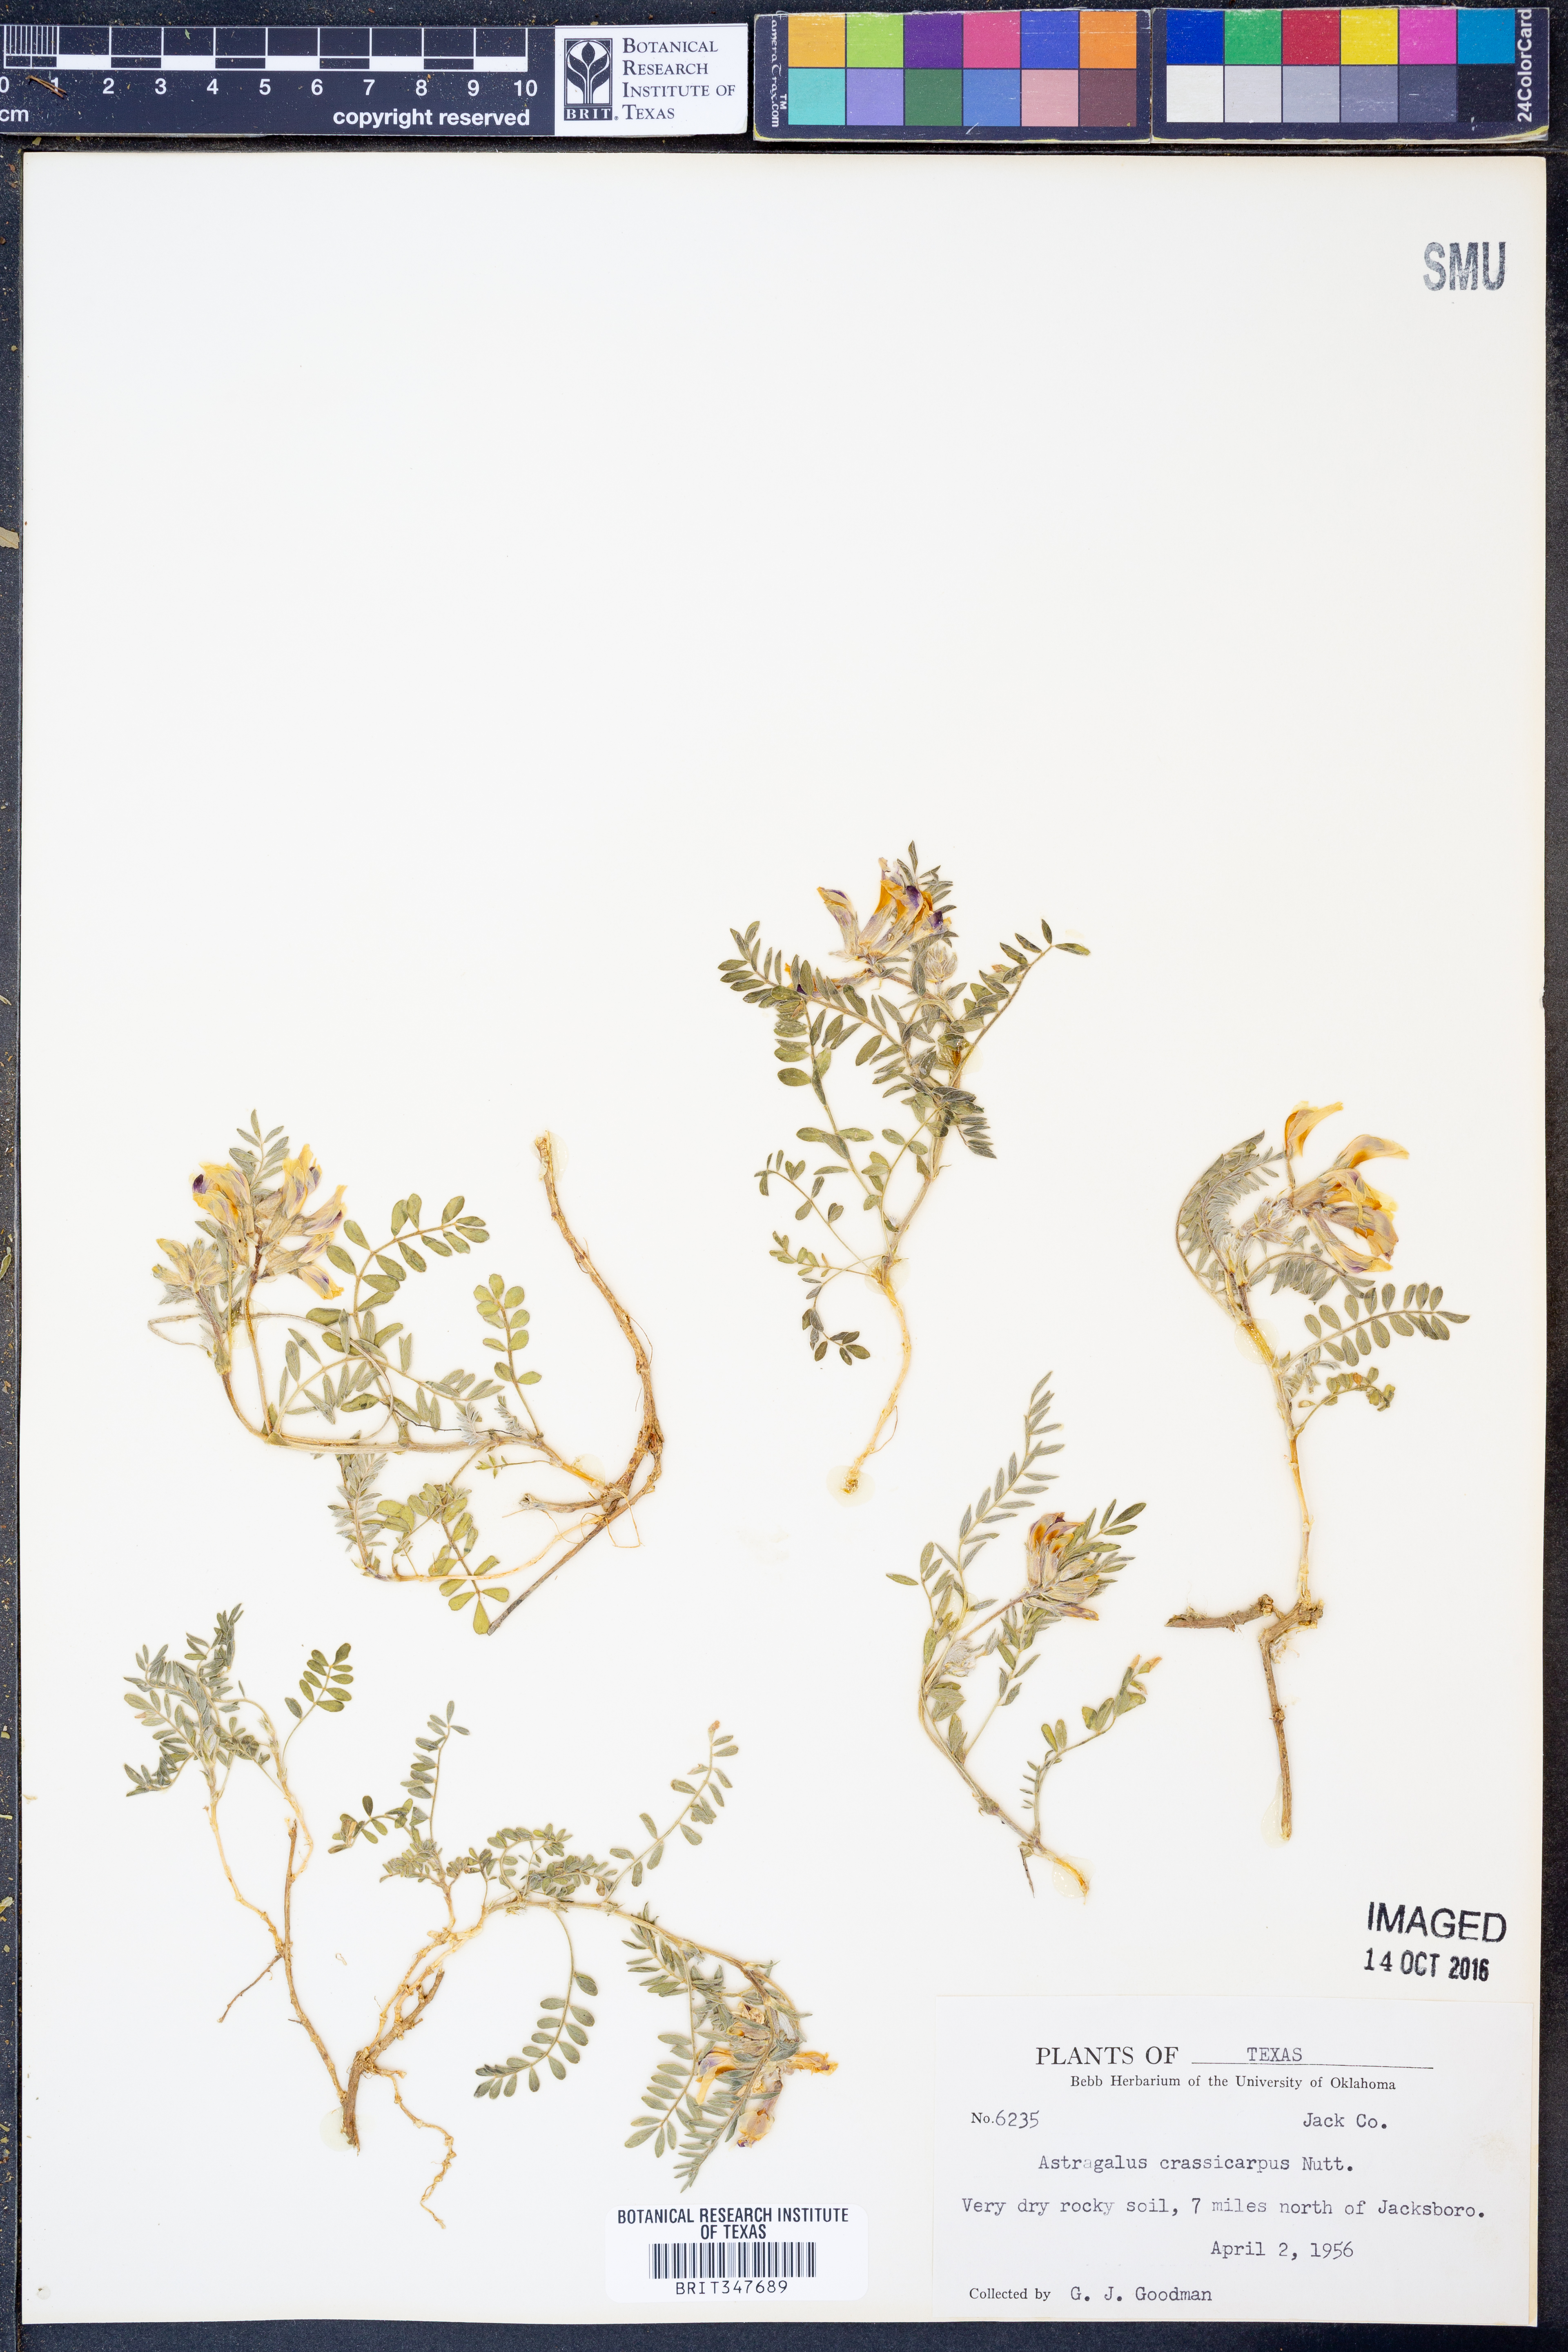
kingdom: Plantae
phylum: Tracheophyta
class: Magnoliopsida
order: Fabales
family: Fabaceae
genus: Astragalus
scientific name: Astragalus crassicarpus
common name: Ground-plum milk-vetch
